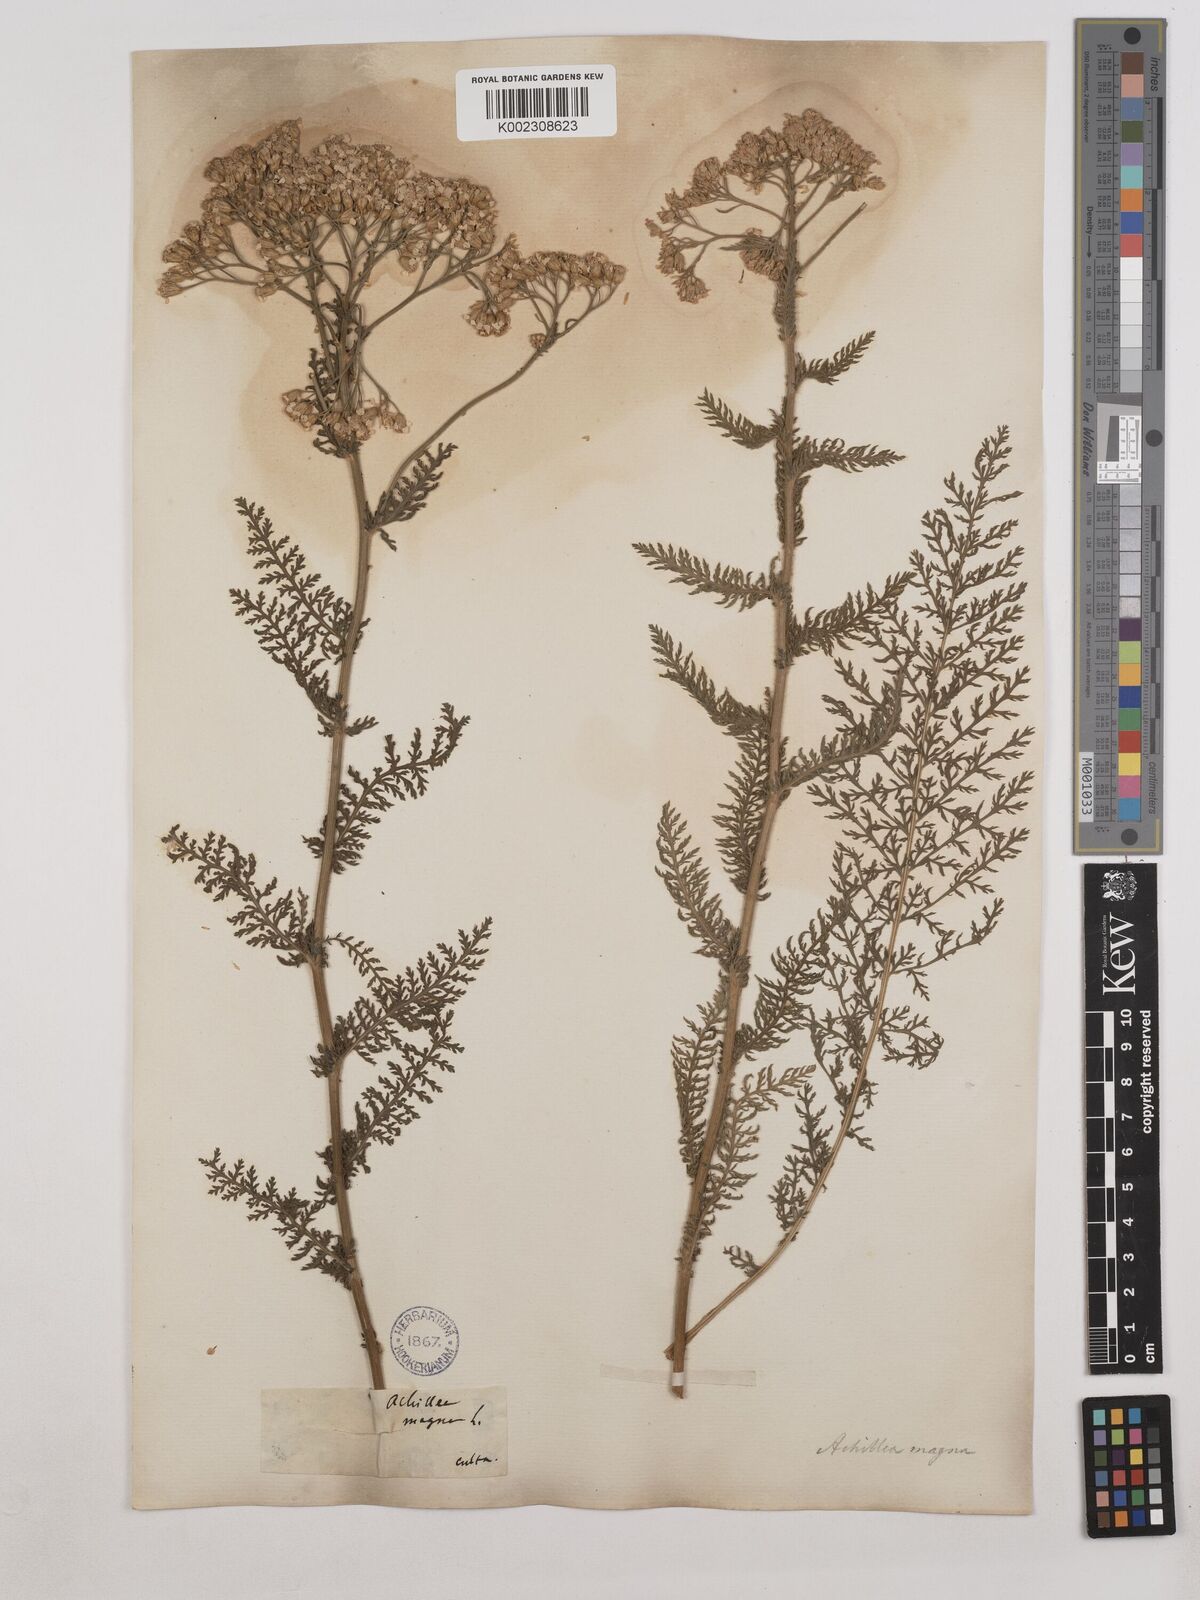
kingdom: Plantae
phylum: Tracheophyta
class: Magnoliopsida
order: Asterales
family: Asteraceae
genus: Achillea
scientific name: Achillea distans
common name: Tall yarrow
